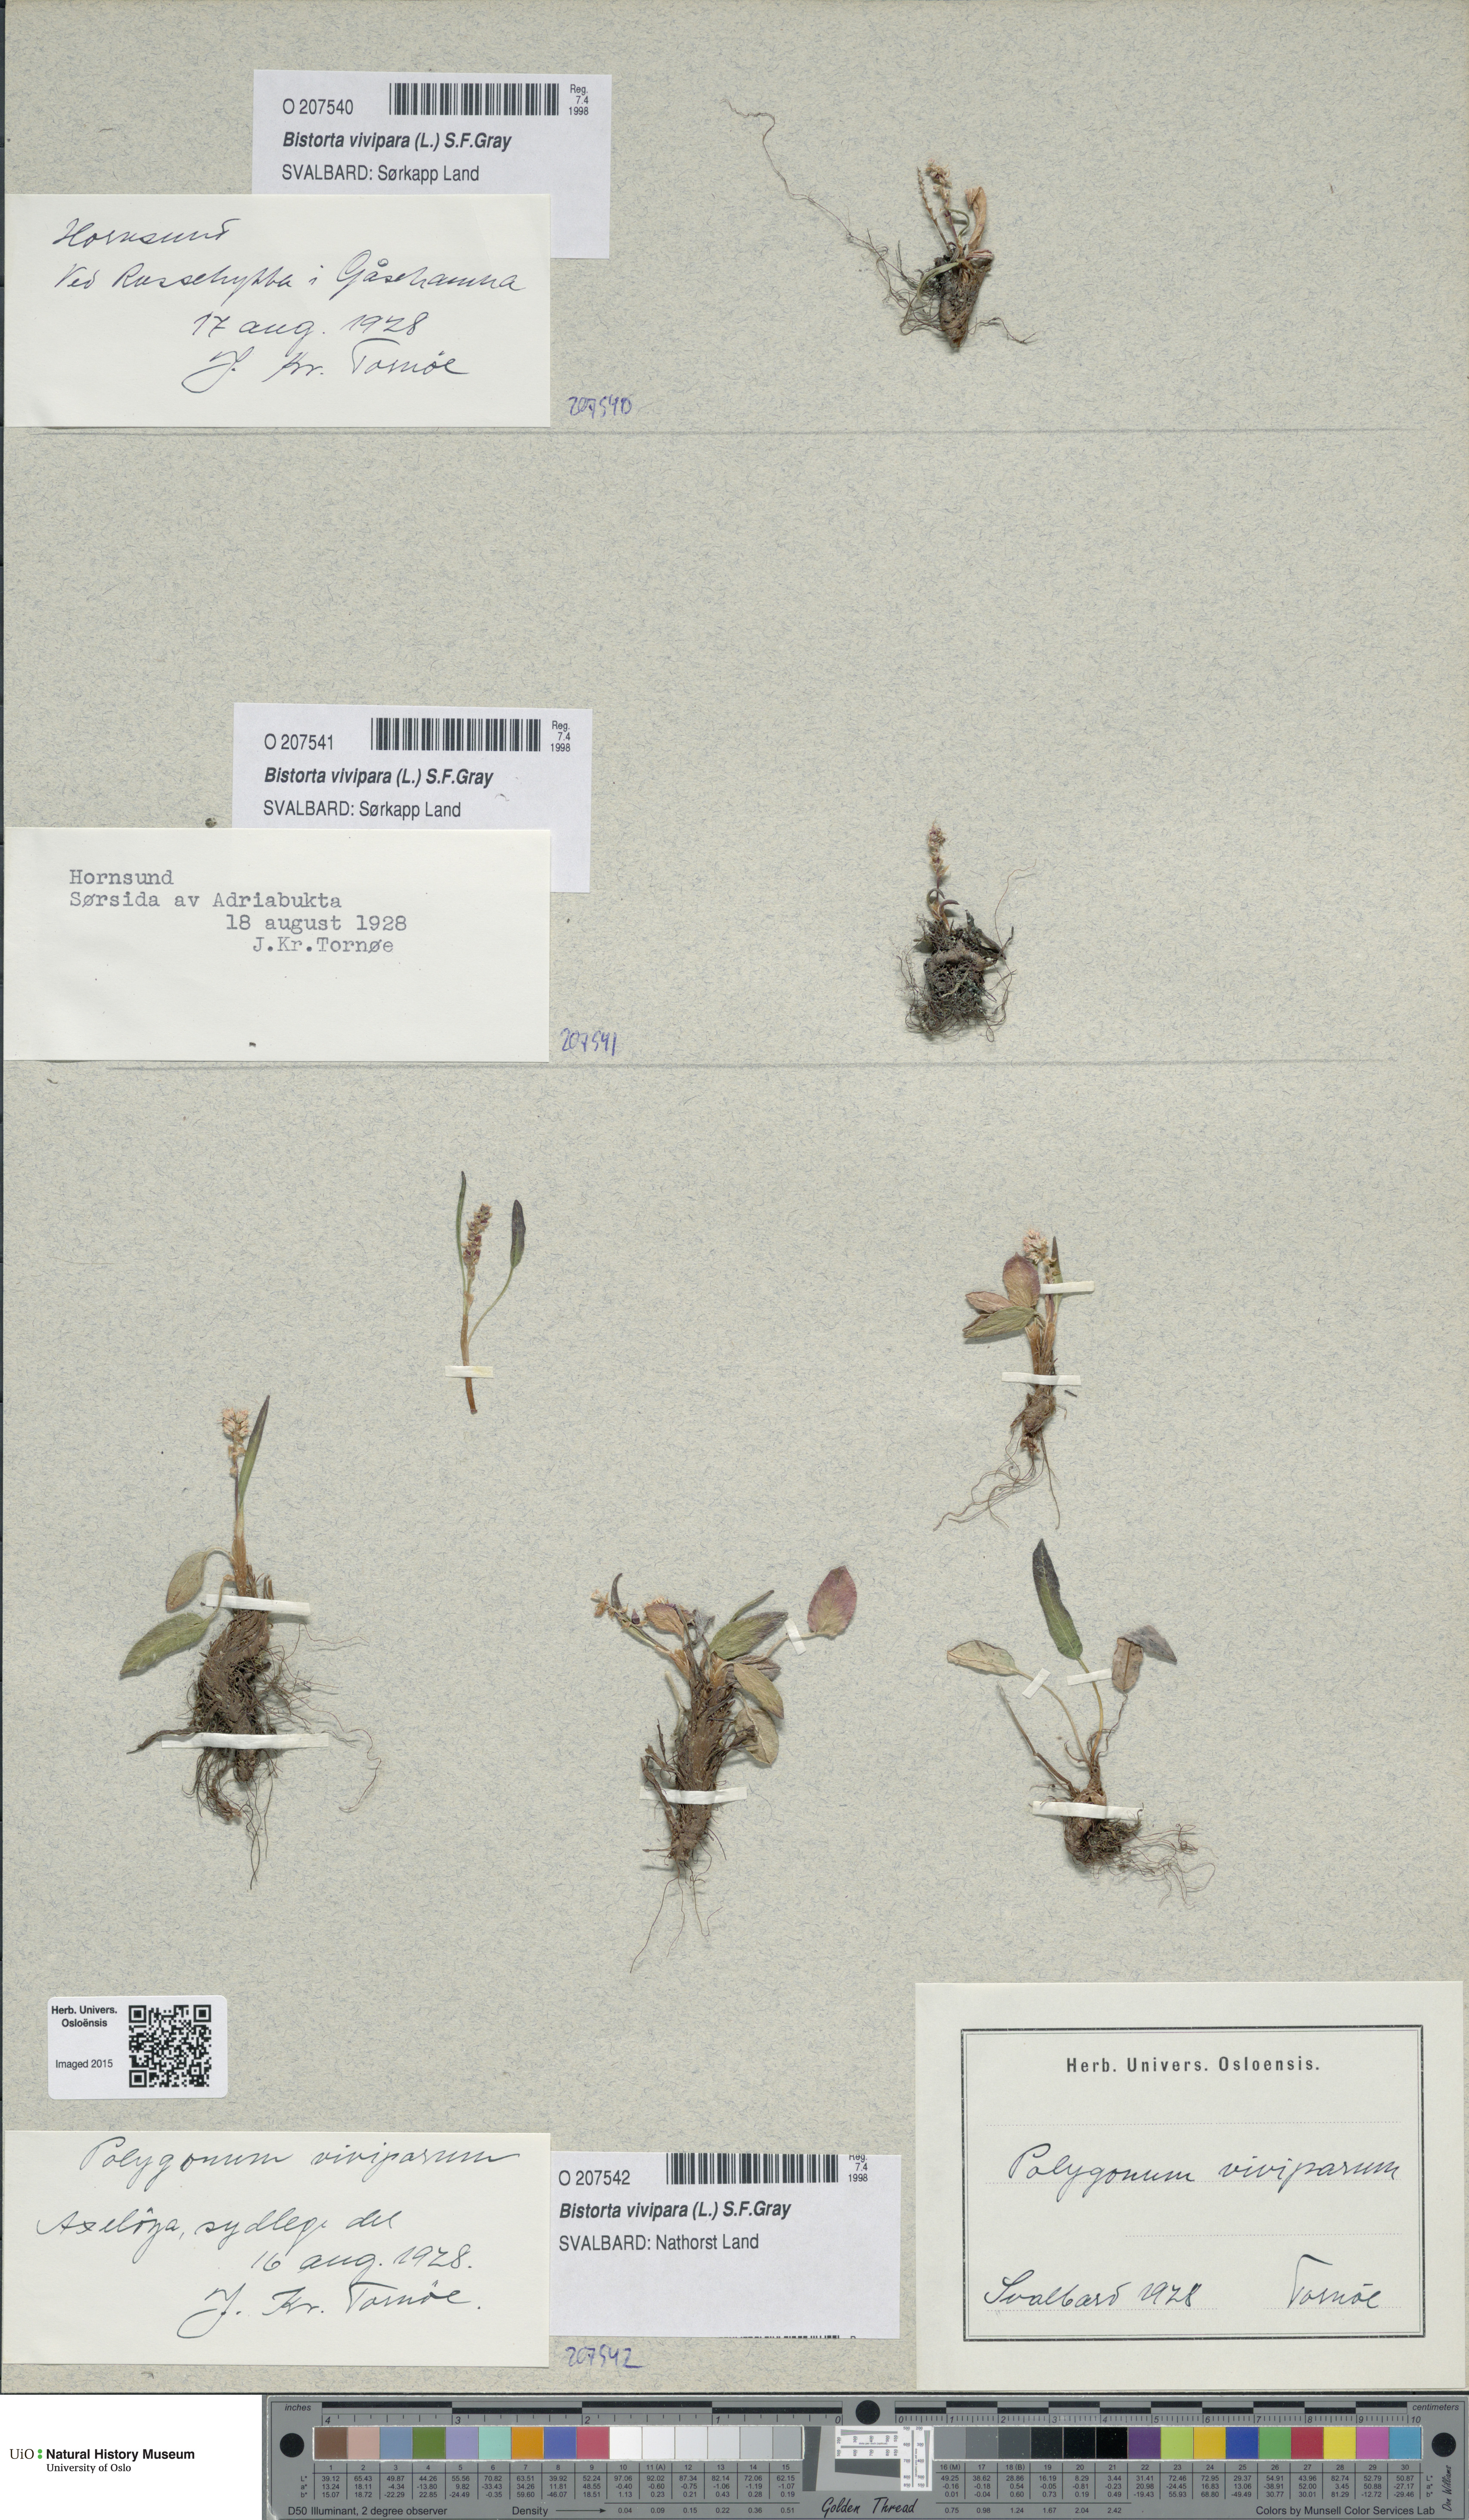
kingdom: Plantae
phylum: Tracheophyta
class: Magnoliopsida
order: Caryophyllales
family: Polygonaceae
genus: Bistorta
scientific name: Bistorta vivipara
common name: Alpine bistort
